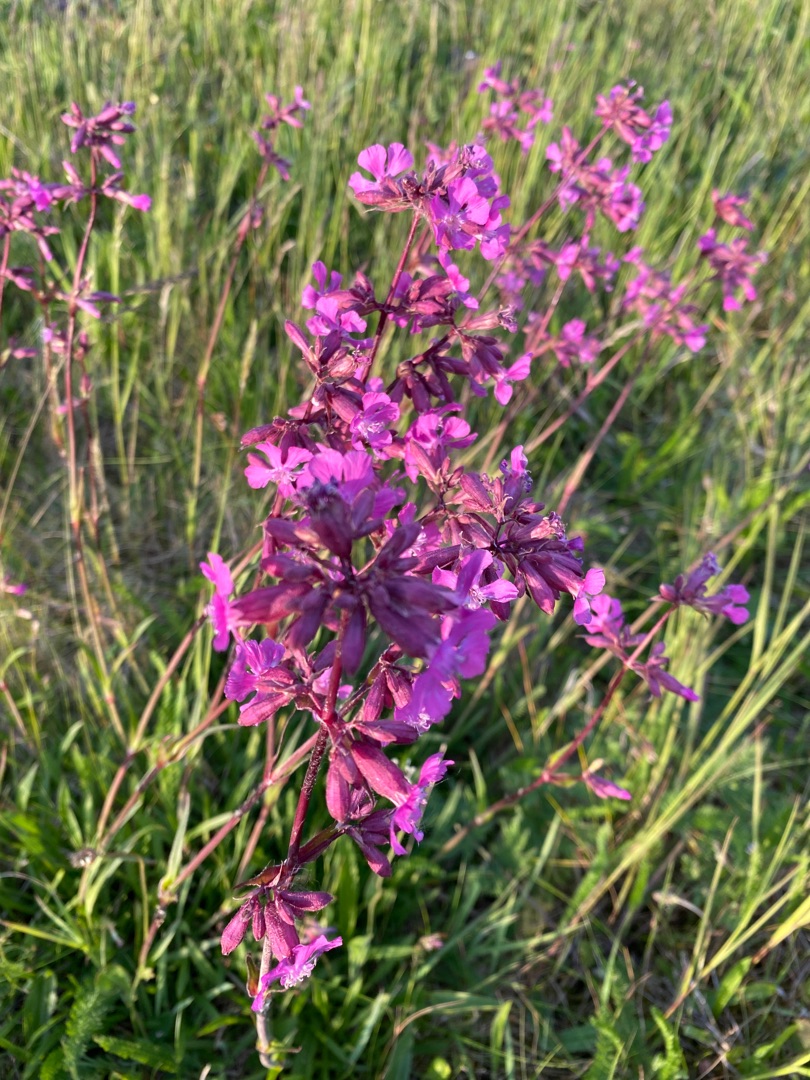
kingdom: Plantae
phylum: Tracheophyta
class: Magnoliopsida
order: Caryophyllales
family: Caryophyllaceae
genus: Viscaria
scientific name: Viscaria vulgaris
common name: Tjærenellike
